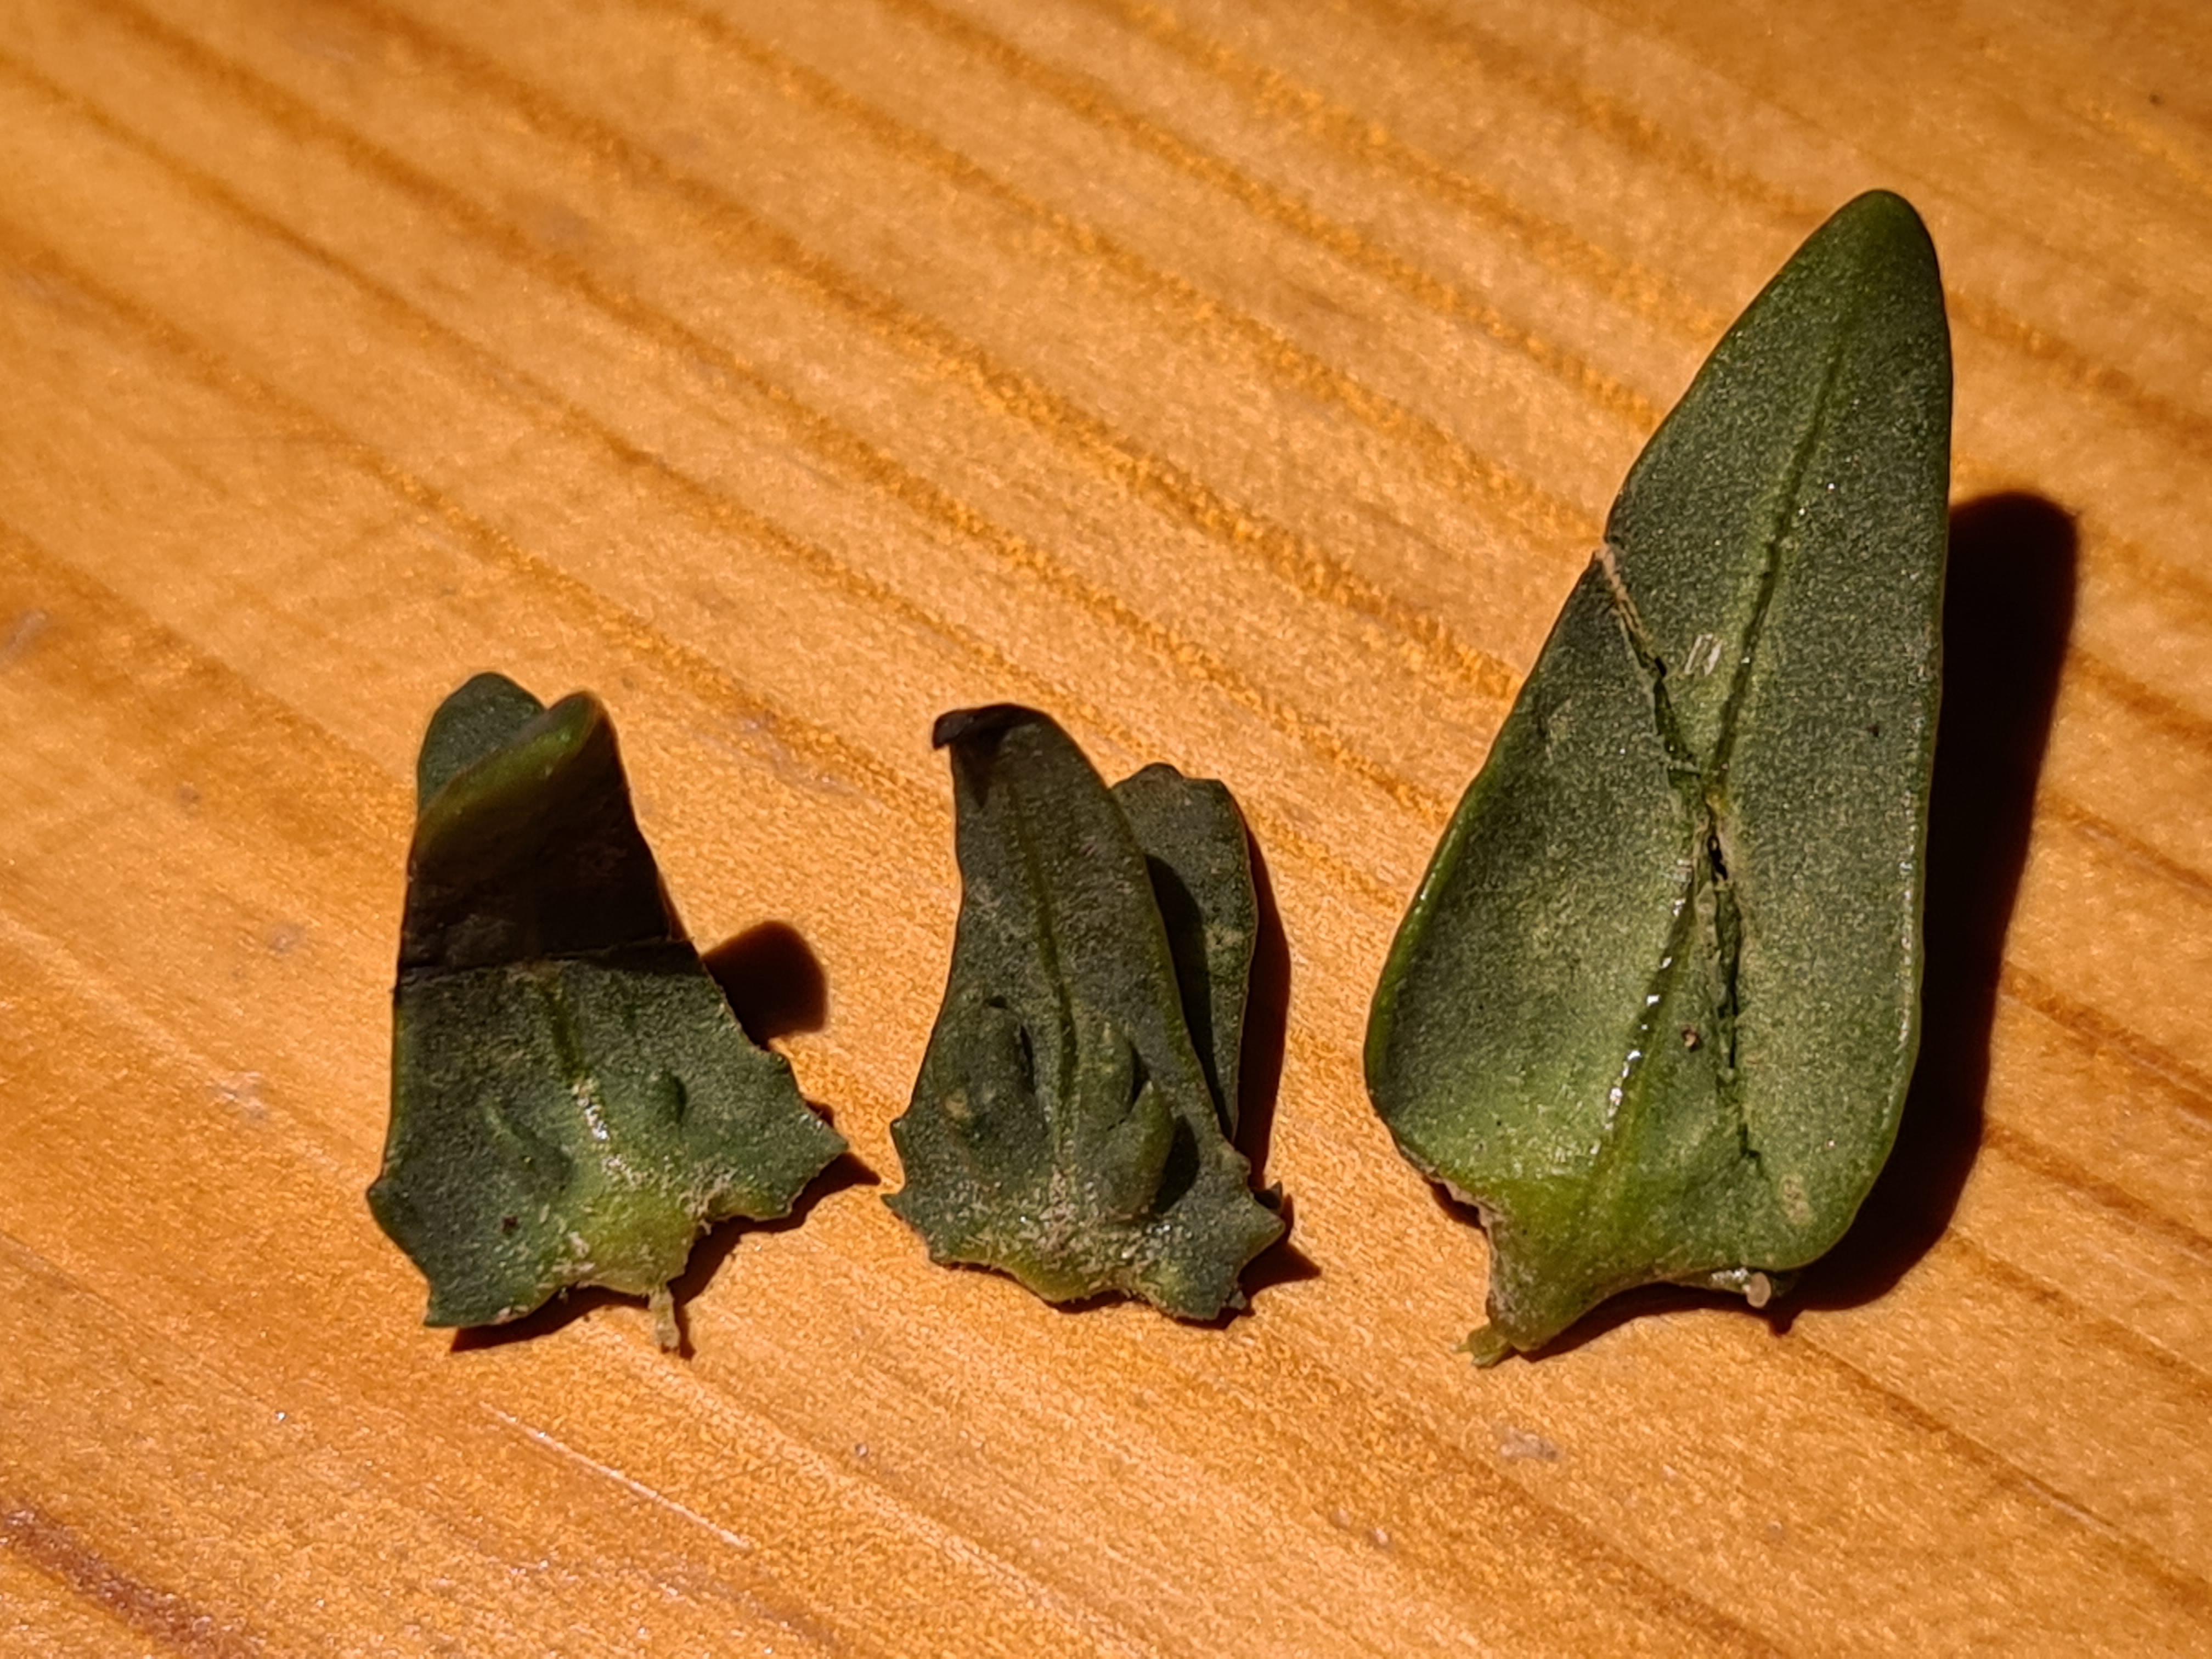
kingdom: Plantae
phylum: Tracheophyta
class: Magnoliopsida
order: Caryophyllales
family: Amaranthaceae
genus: Atriplex
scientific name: Atriplex patula
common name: Svine-mælde
